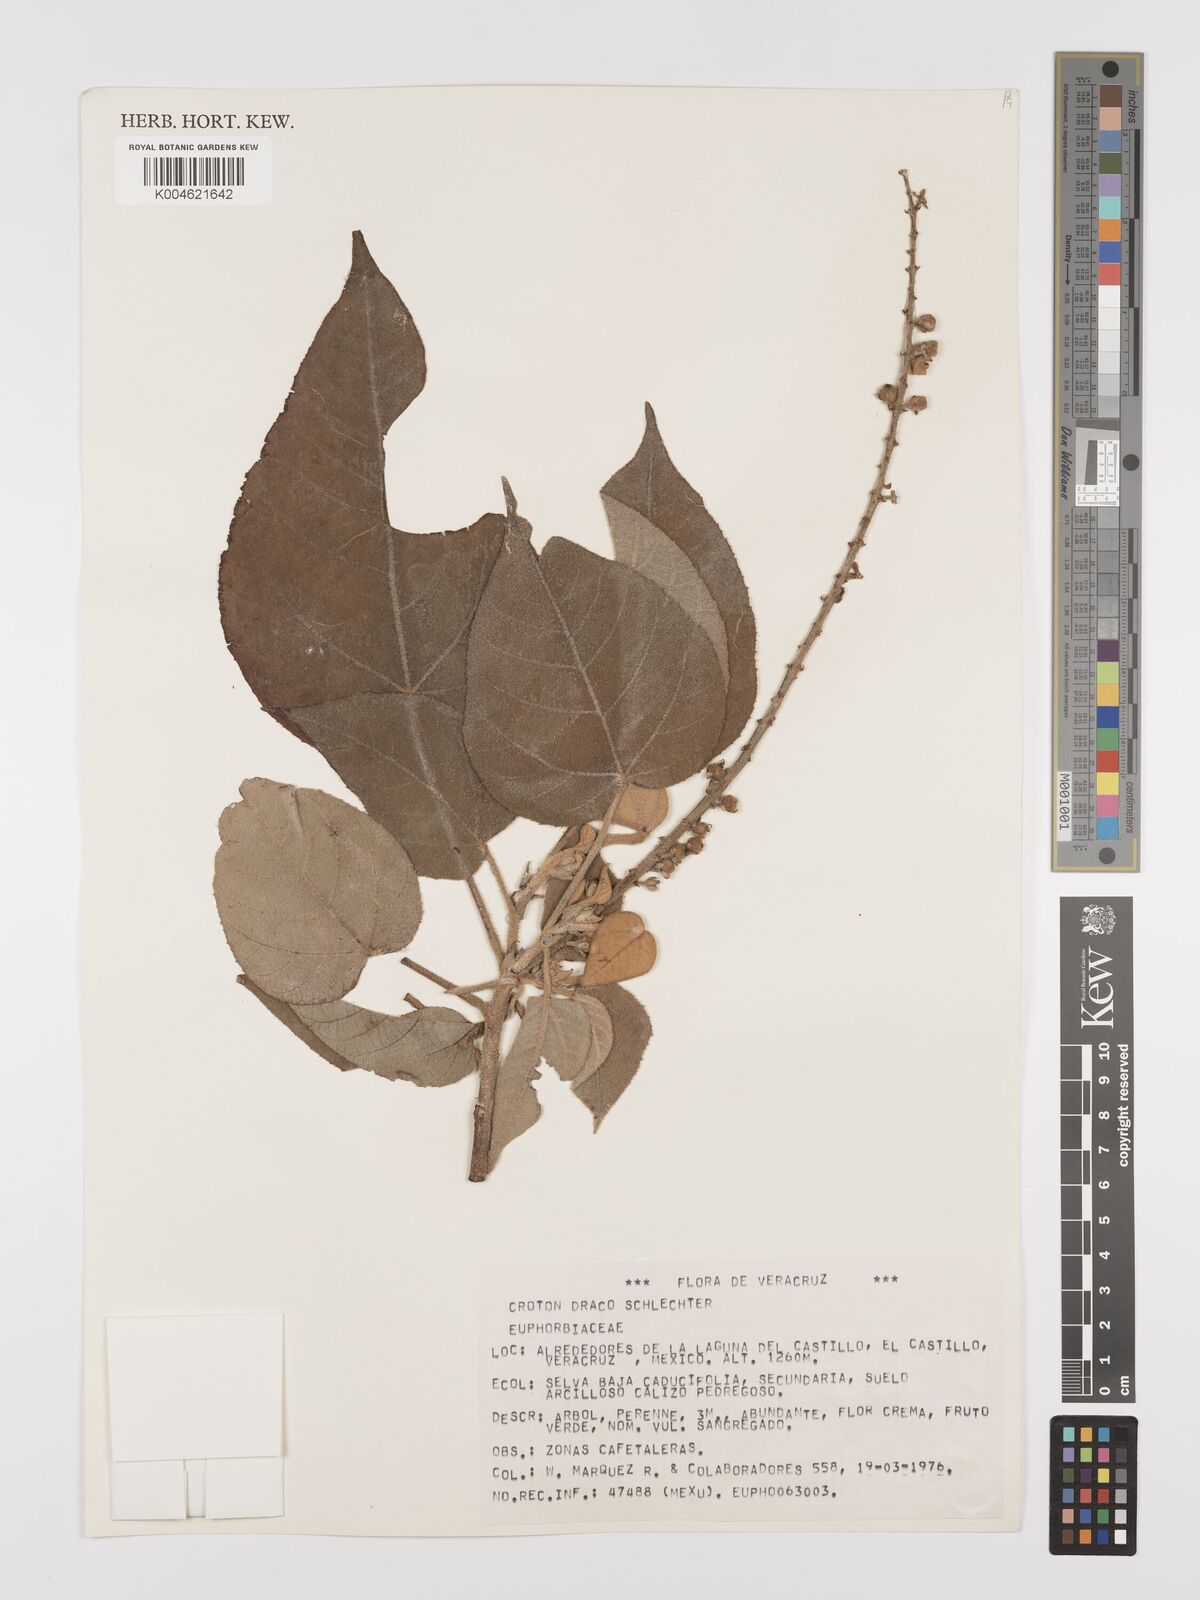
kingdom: Plantae
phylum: Tracheophyta
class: Magnoliopsida
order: Malpighiales
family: Euphorbiaceae
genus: Croton
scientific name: Croton draco
